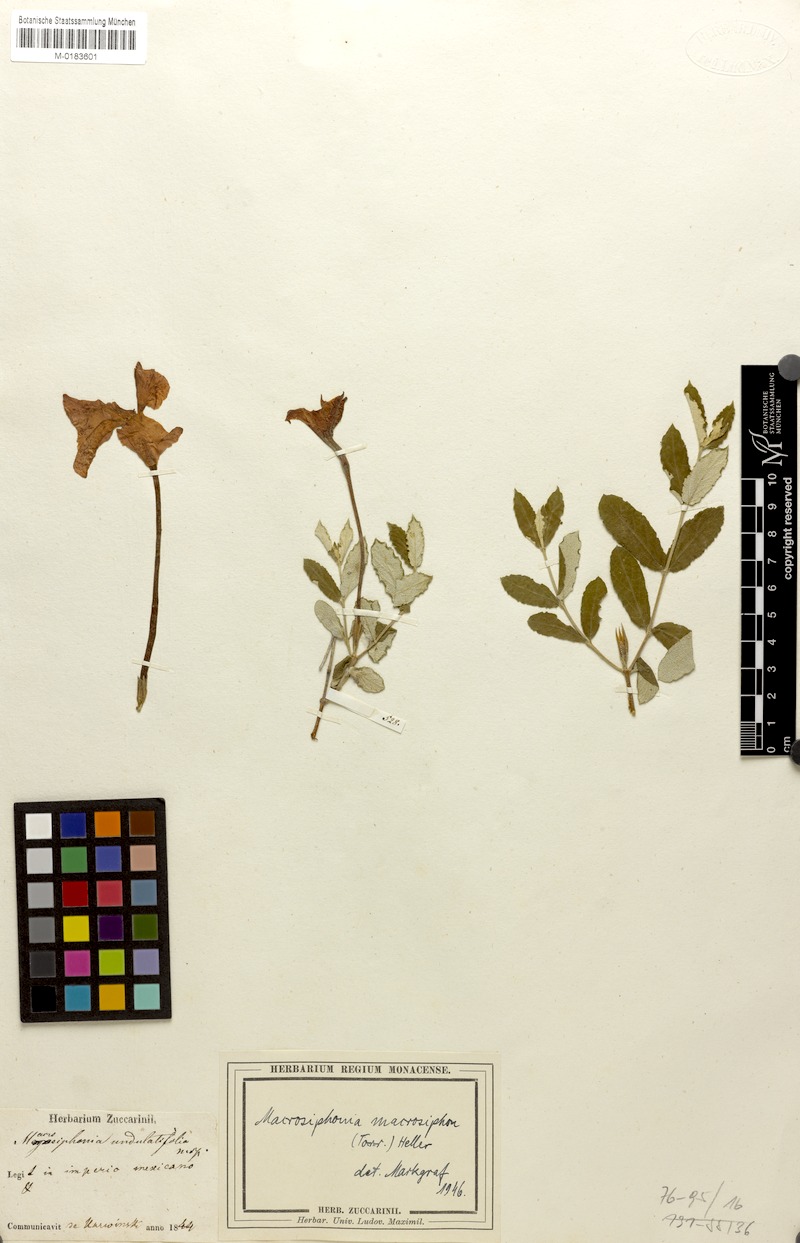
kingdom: Plantae
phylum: Tracheophyta
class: Magnoliopsida
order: Gentianales
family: Apocynaceae
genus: Mandevilla
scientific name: Mandevilla macrosiphon
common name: Plateau rocktrumpet
